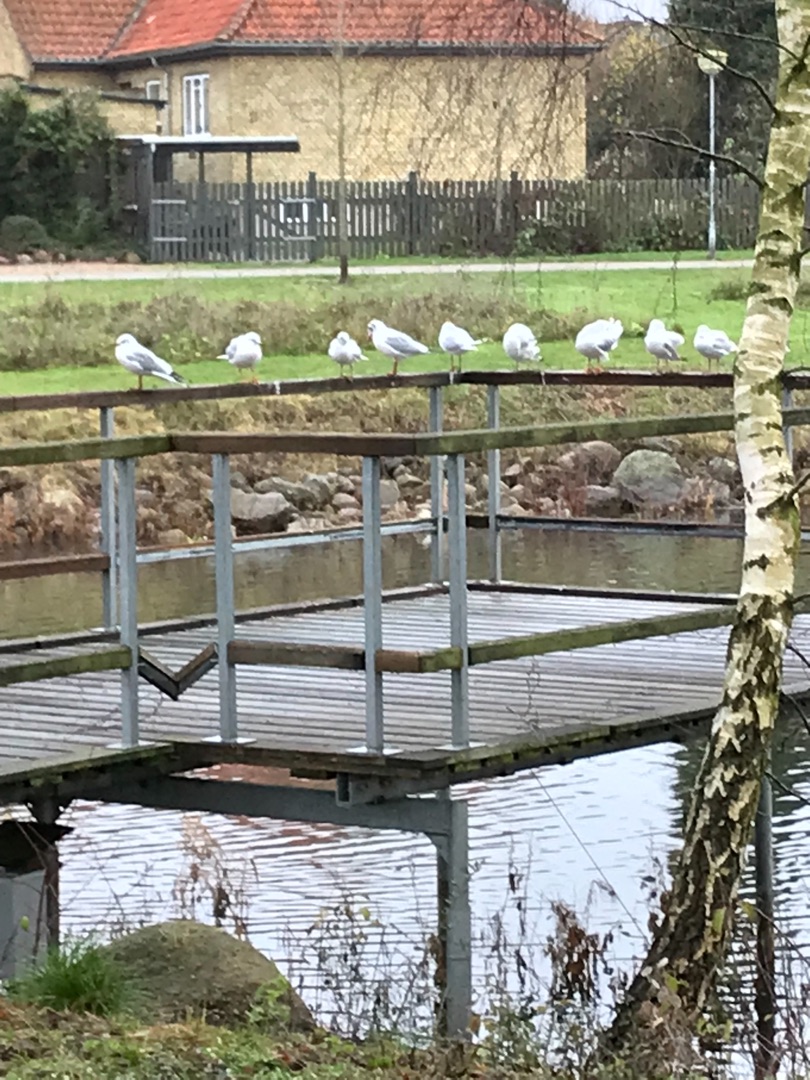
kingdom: Animalia
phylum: Chordata
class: Aves
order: Charadriiformes
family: Laridae
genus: Chroicocephalus
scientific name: Chroicocephalus ridibundus
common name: Hættemåge
